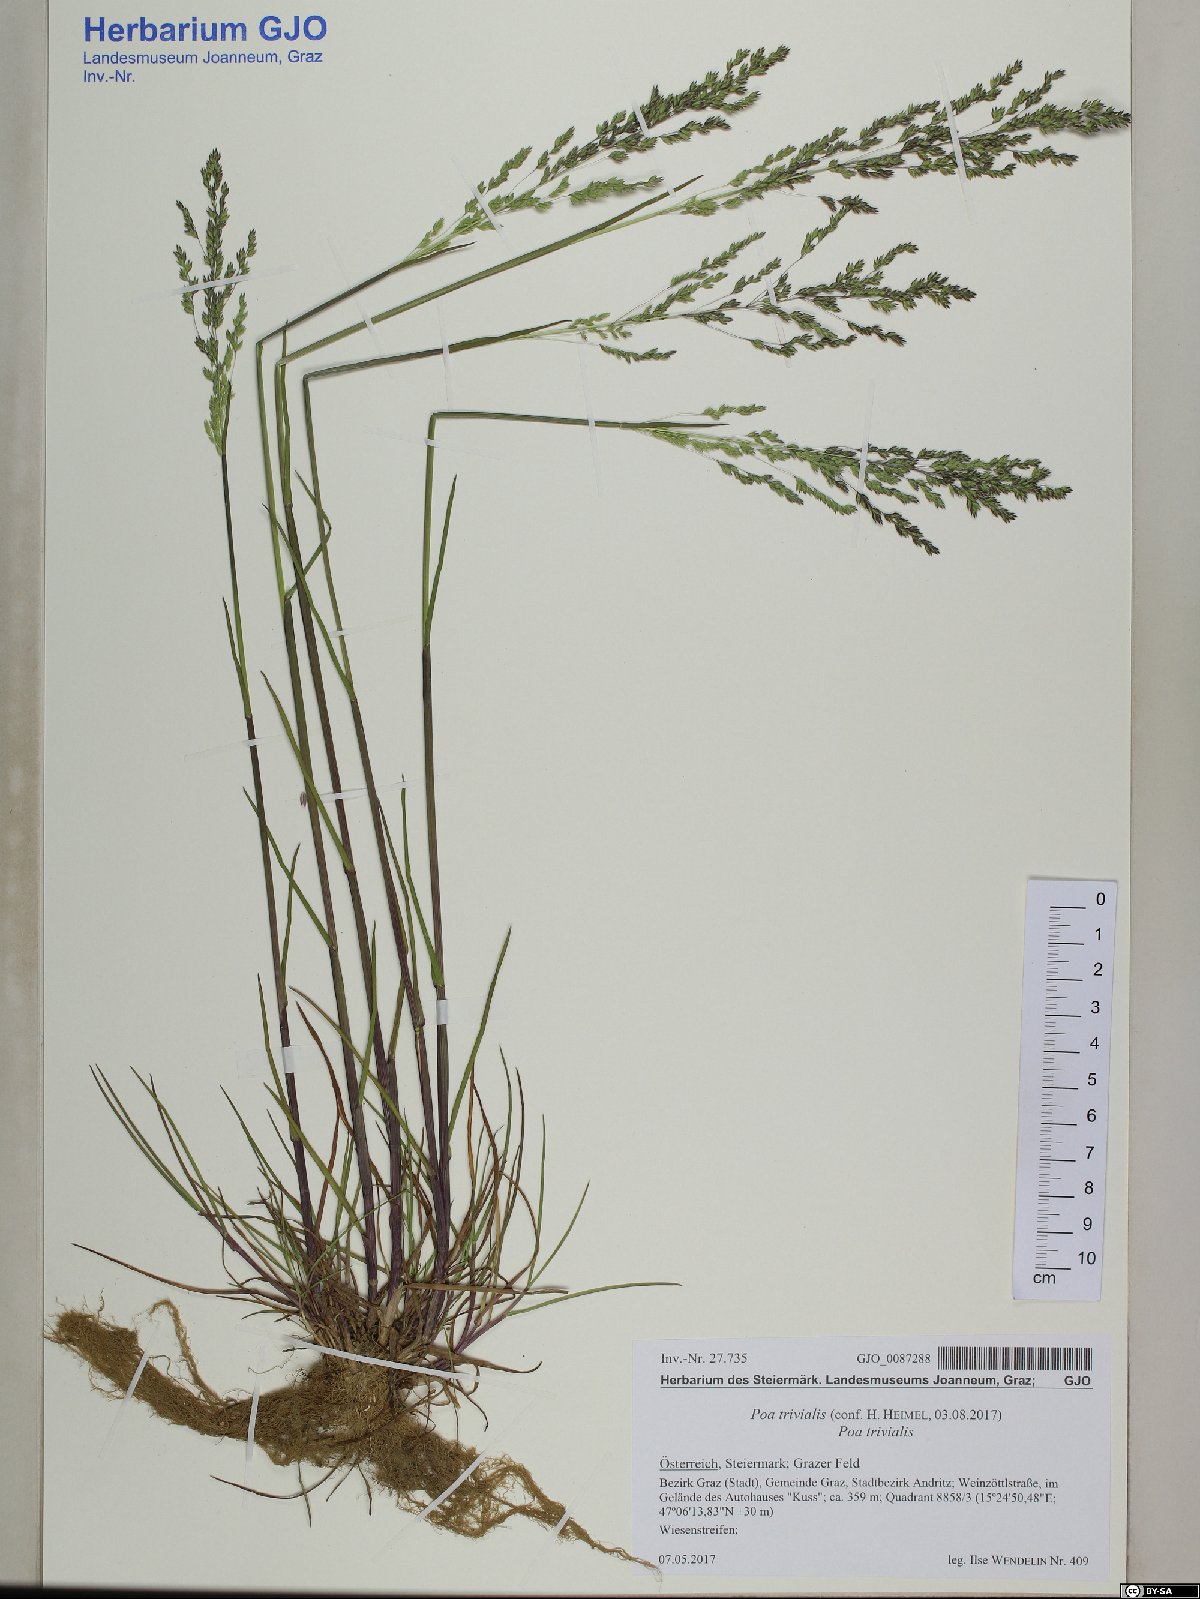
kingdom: Plantae
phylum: Tracheophyta
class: Liliopsida
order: Poales
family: Poaceae
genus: Poa
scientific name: Poa trivialis
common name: Rough bluegrass
